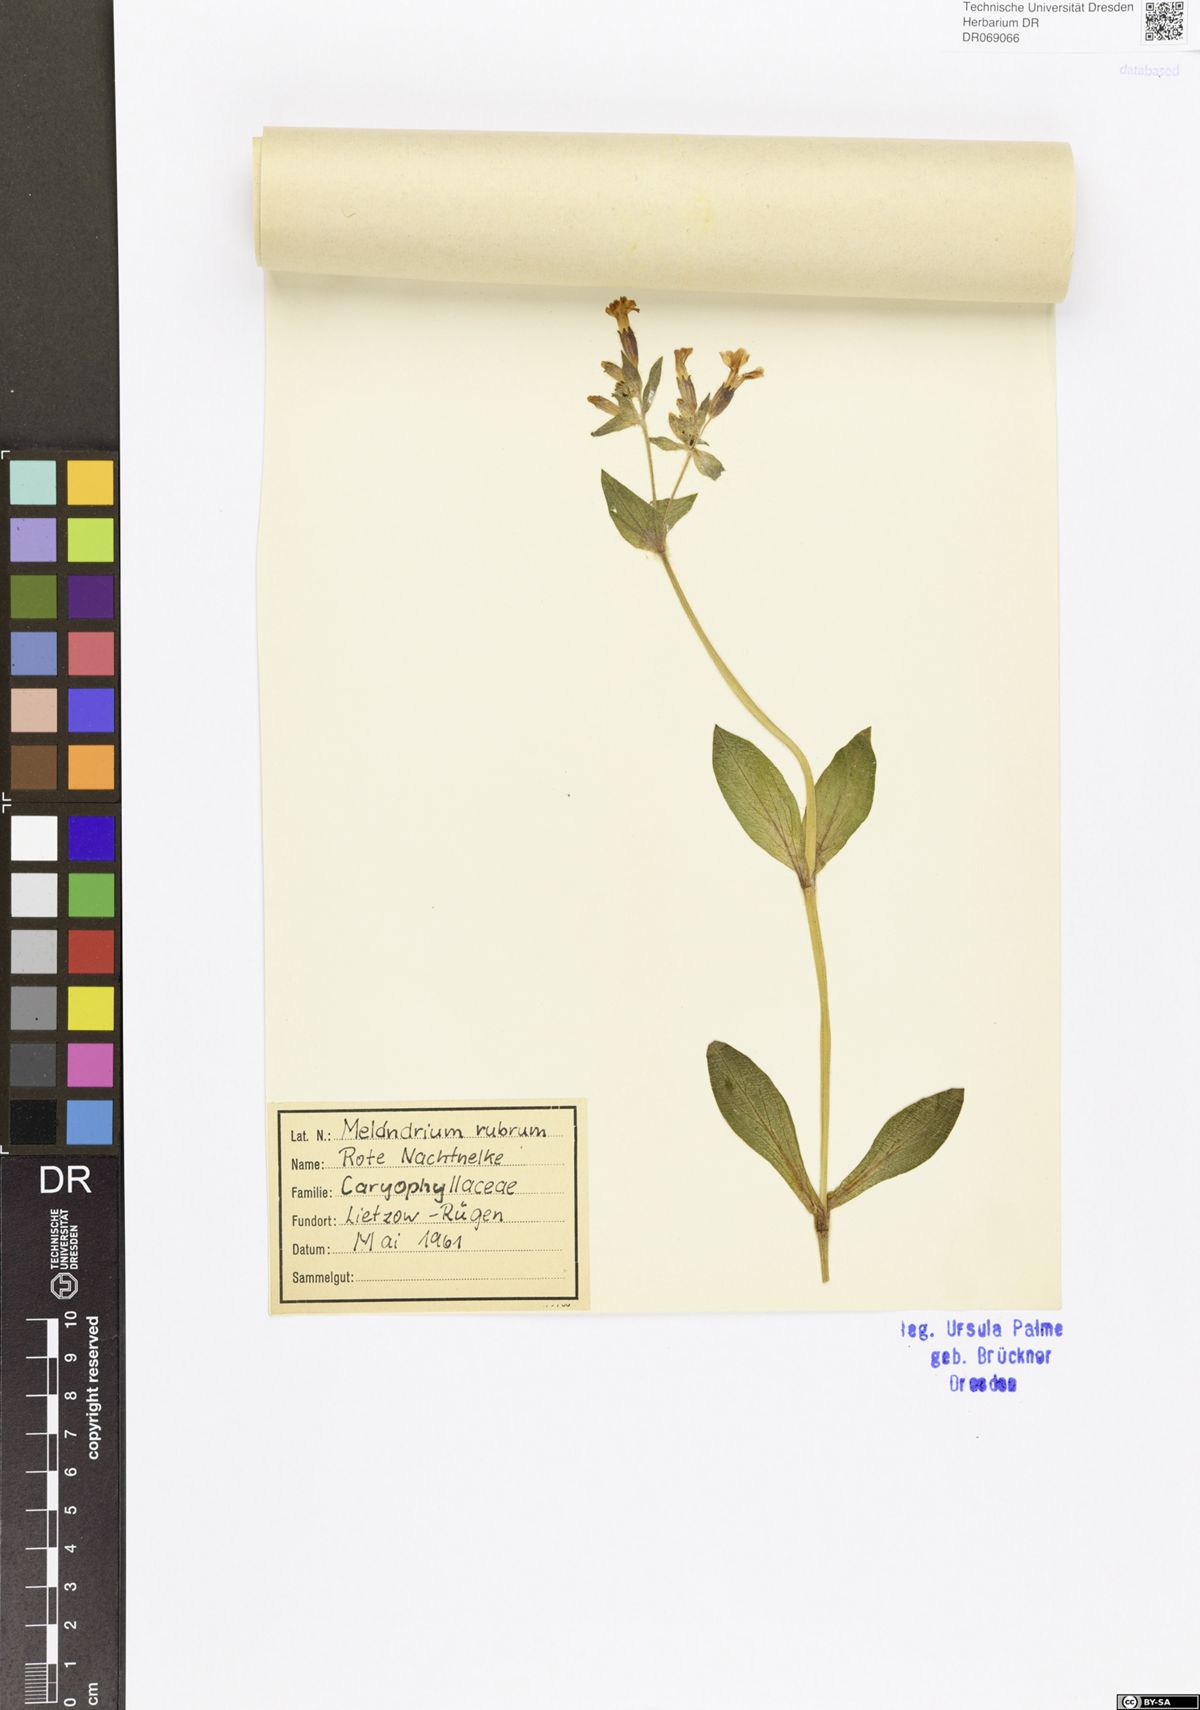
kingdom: Plantae
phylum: Tracheophyta
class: Magnoliopsida
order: Caryophyllales
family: Caryophyllaceae
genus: Silene
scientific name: Silene dioica
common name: Red campion
